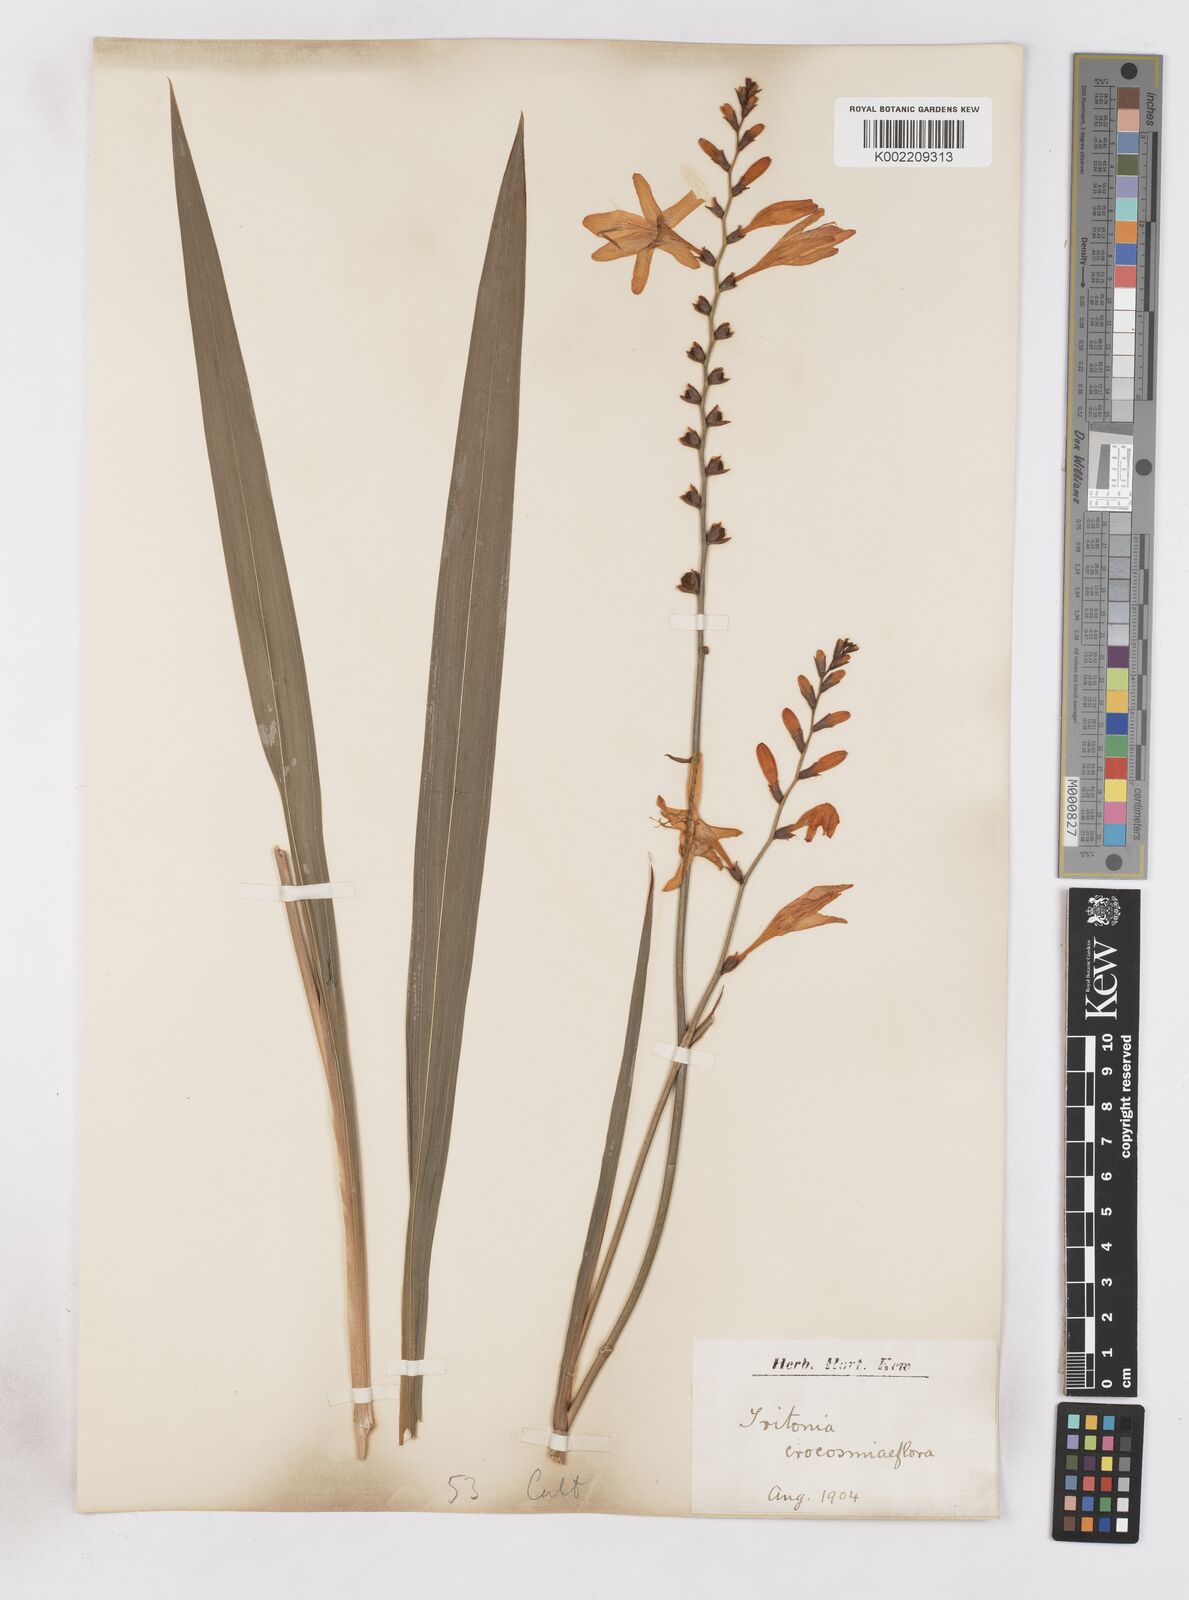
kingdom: Plantae
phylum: Tracheophyta
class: Liliopsida
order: Asparagales
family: Iridaceae
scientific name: Iridaceae
